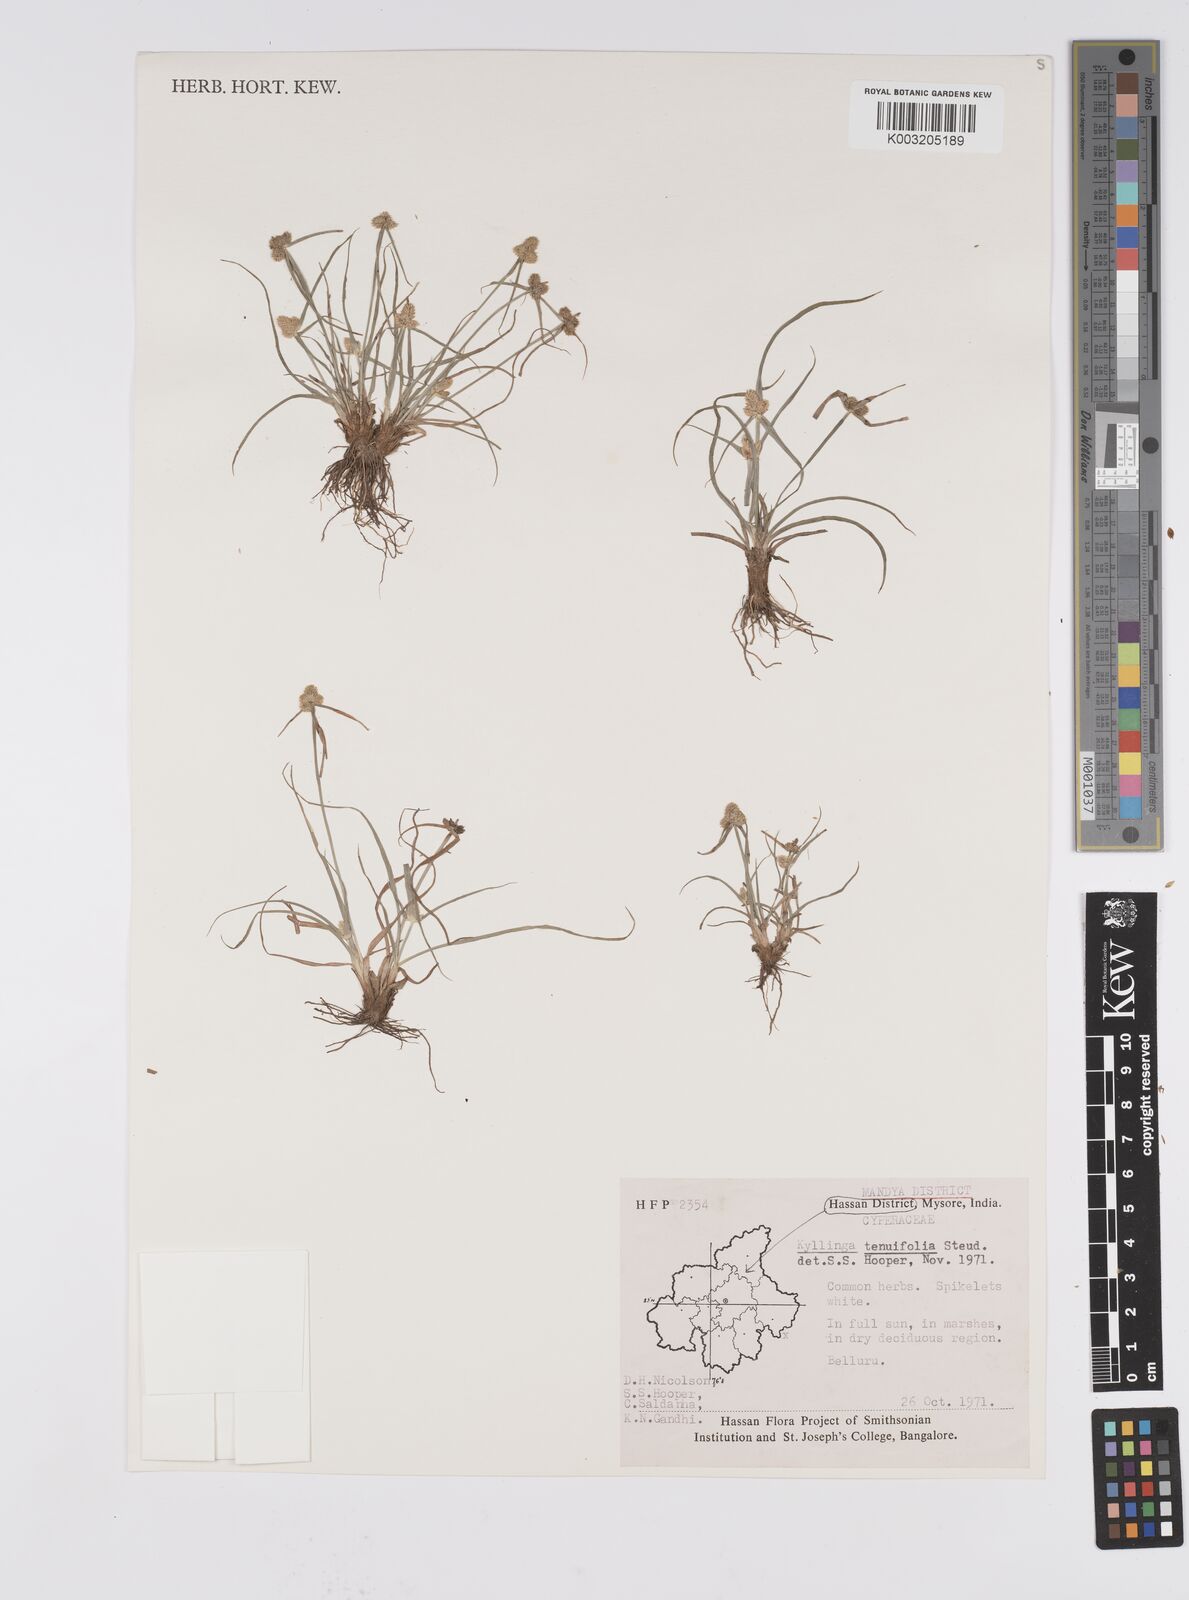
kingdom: Plantae
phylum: Tracheophyta
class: Liliopsida
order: Poales
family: Cyperaceae
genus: Cyperus
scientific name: Cyperus
